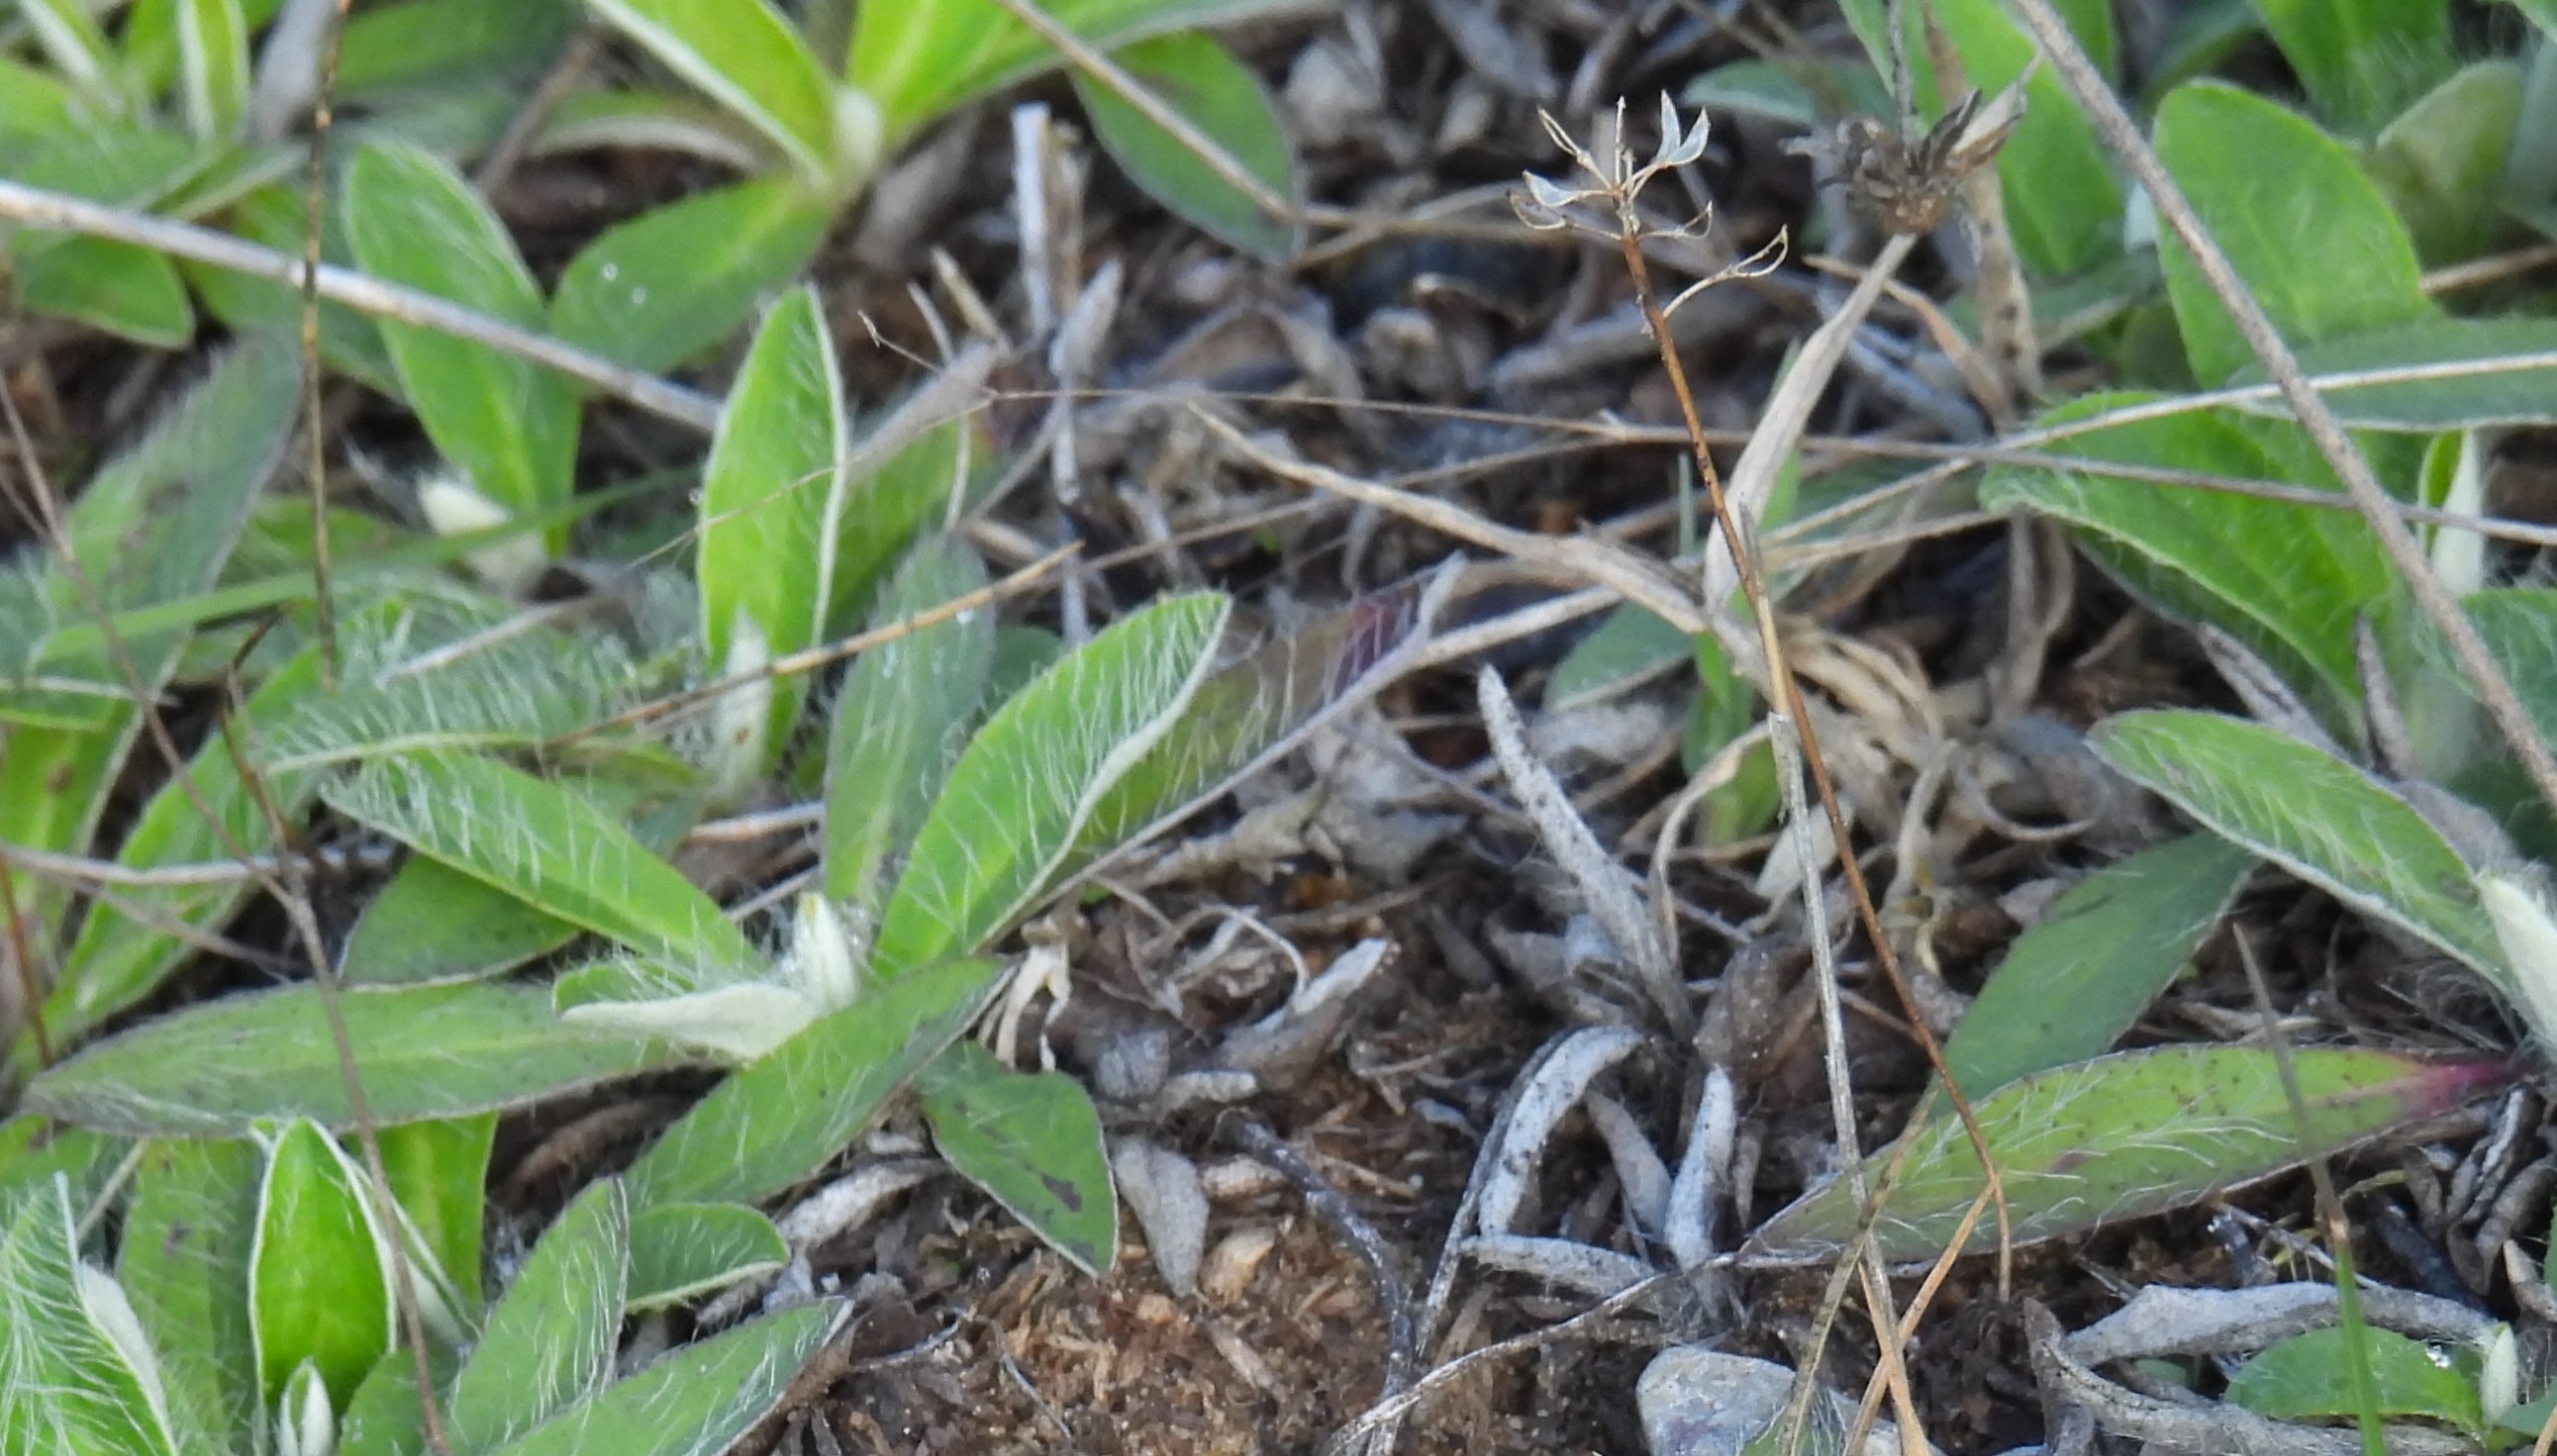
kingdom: Plantae
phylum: Tracheophyta
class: Magnoliopsida
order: Asterales
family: Asteraceae
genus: Pilosella
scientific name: Pilosella officinarum
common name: Håret høgeurt
